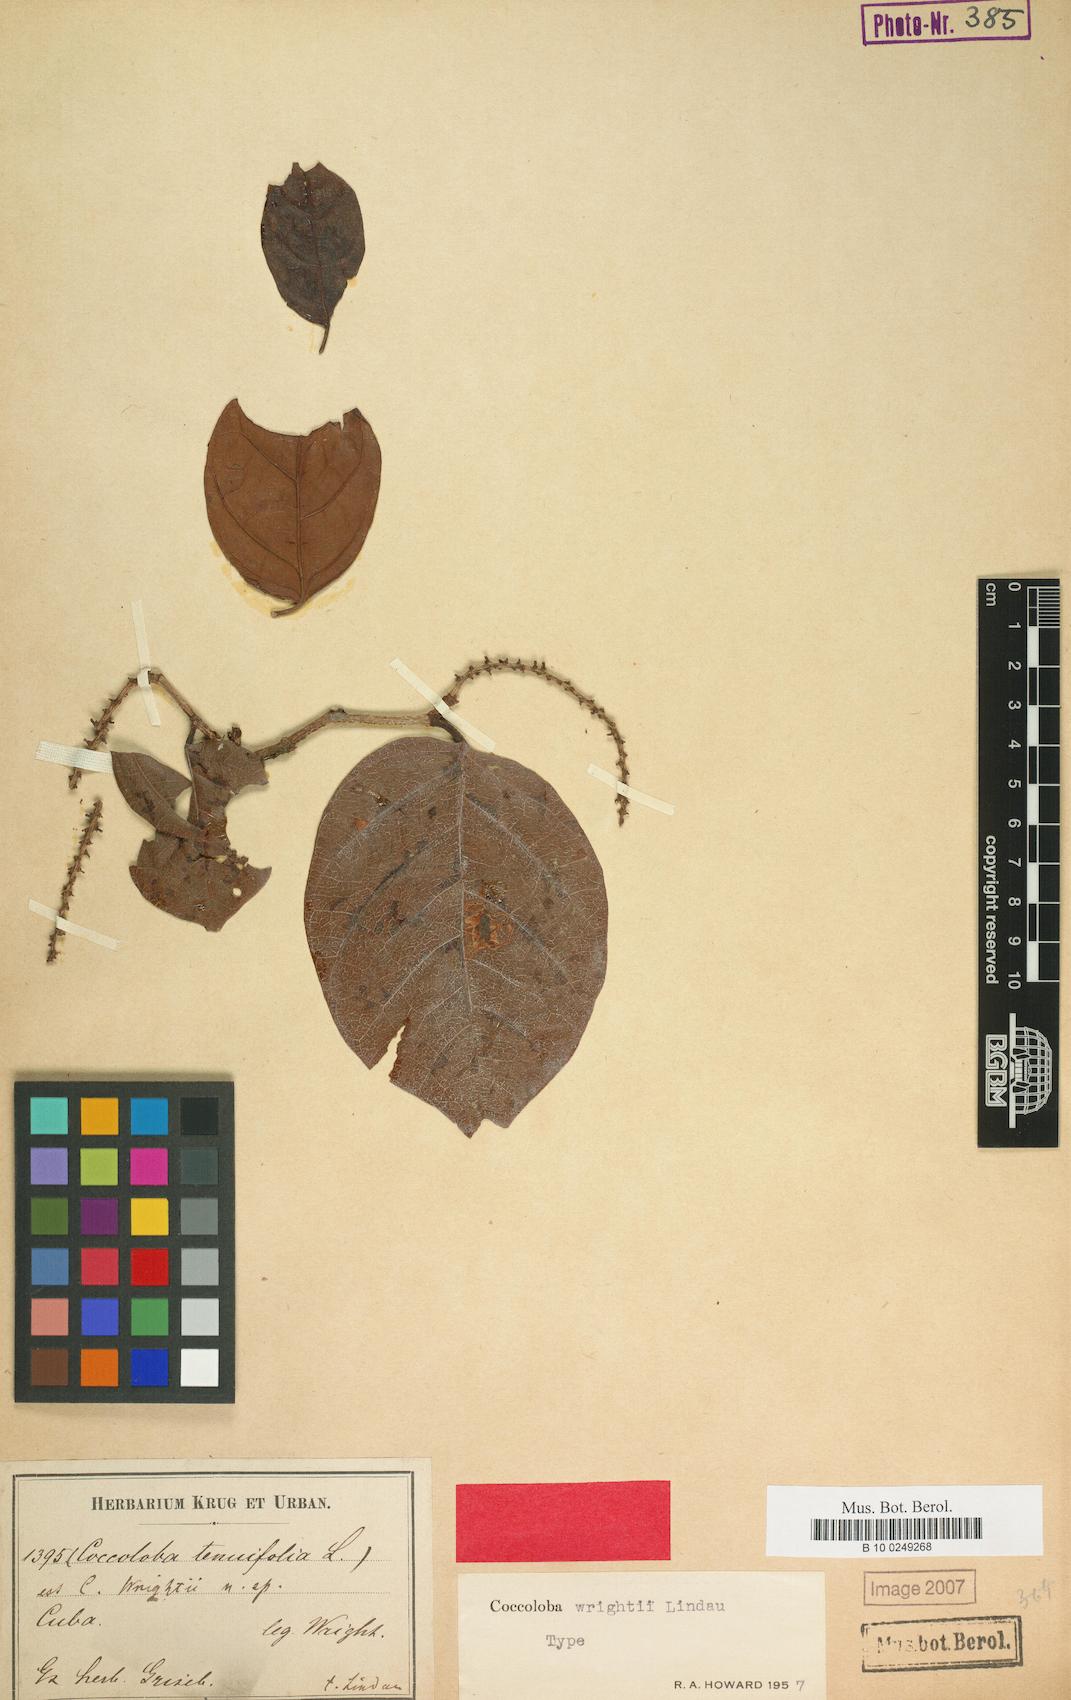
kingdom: Plantae
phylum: Tracheophyta
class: Magnoliopsida
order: Caryophyllales
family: Polygonaceae
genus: Coccoloba
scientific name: Coccoloba wrightii
